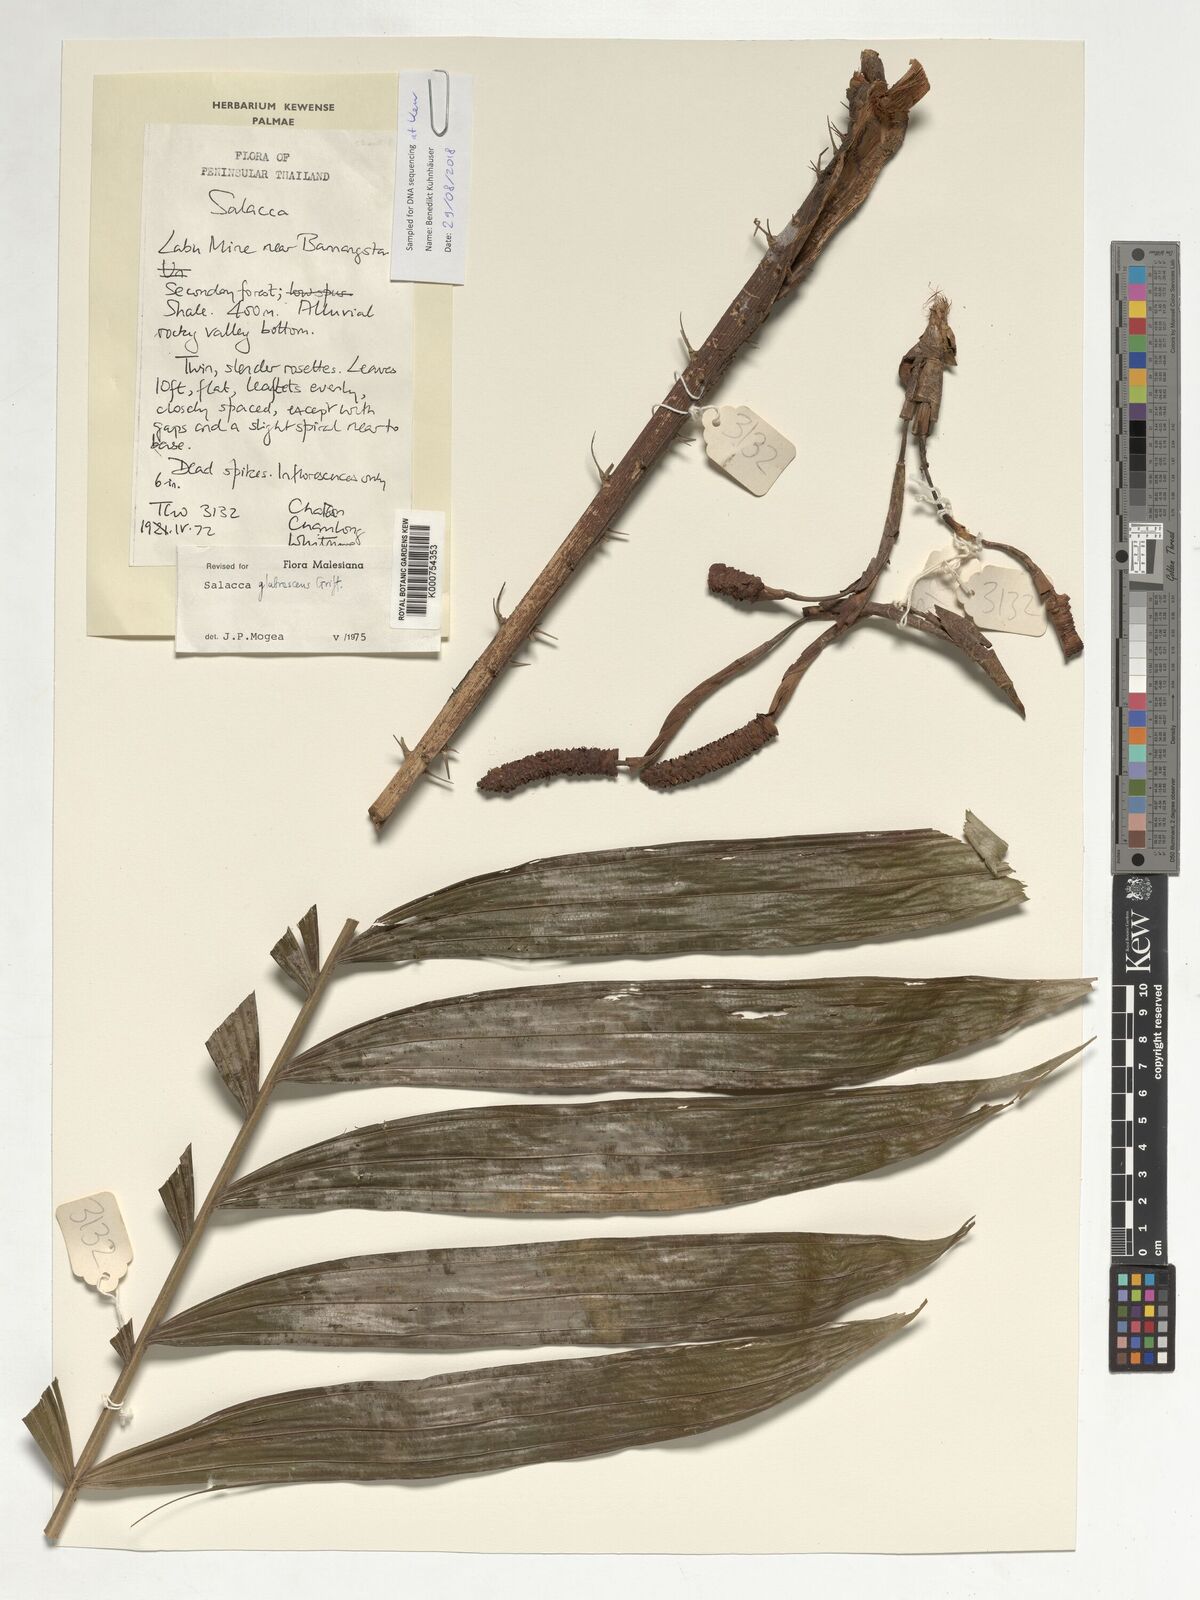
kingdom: Plantae
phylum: Tracheophyta
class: Liliopsida
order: Arecales
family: Arecaceae
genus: Salacca
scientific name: Salacca glabrescens
